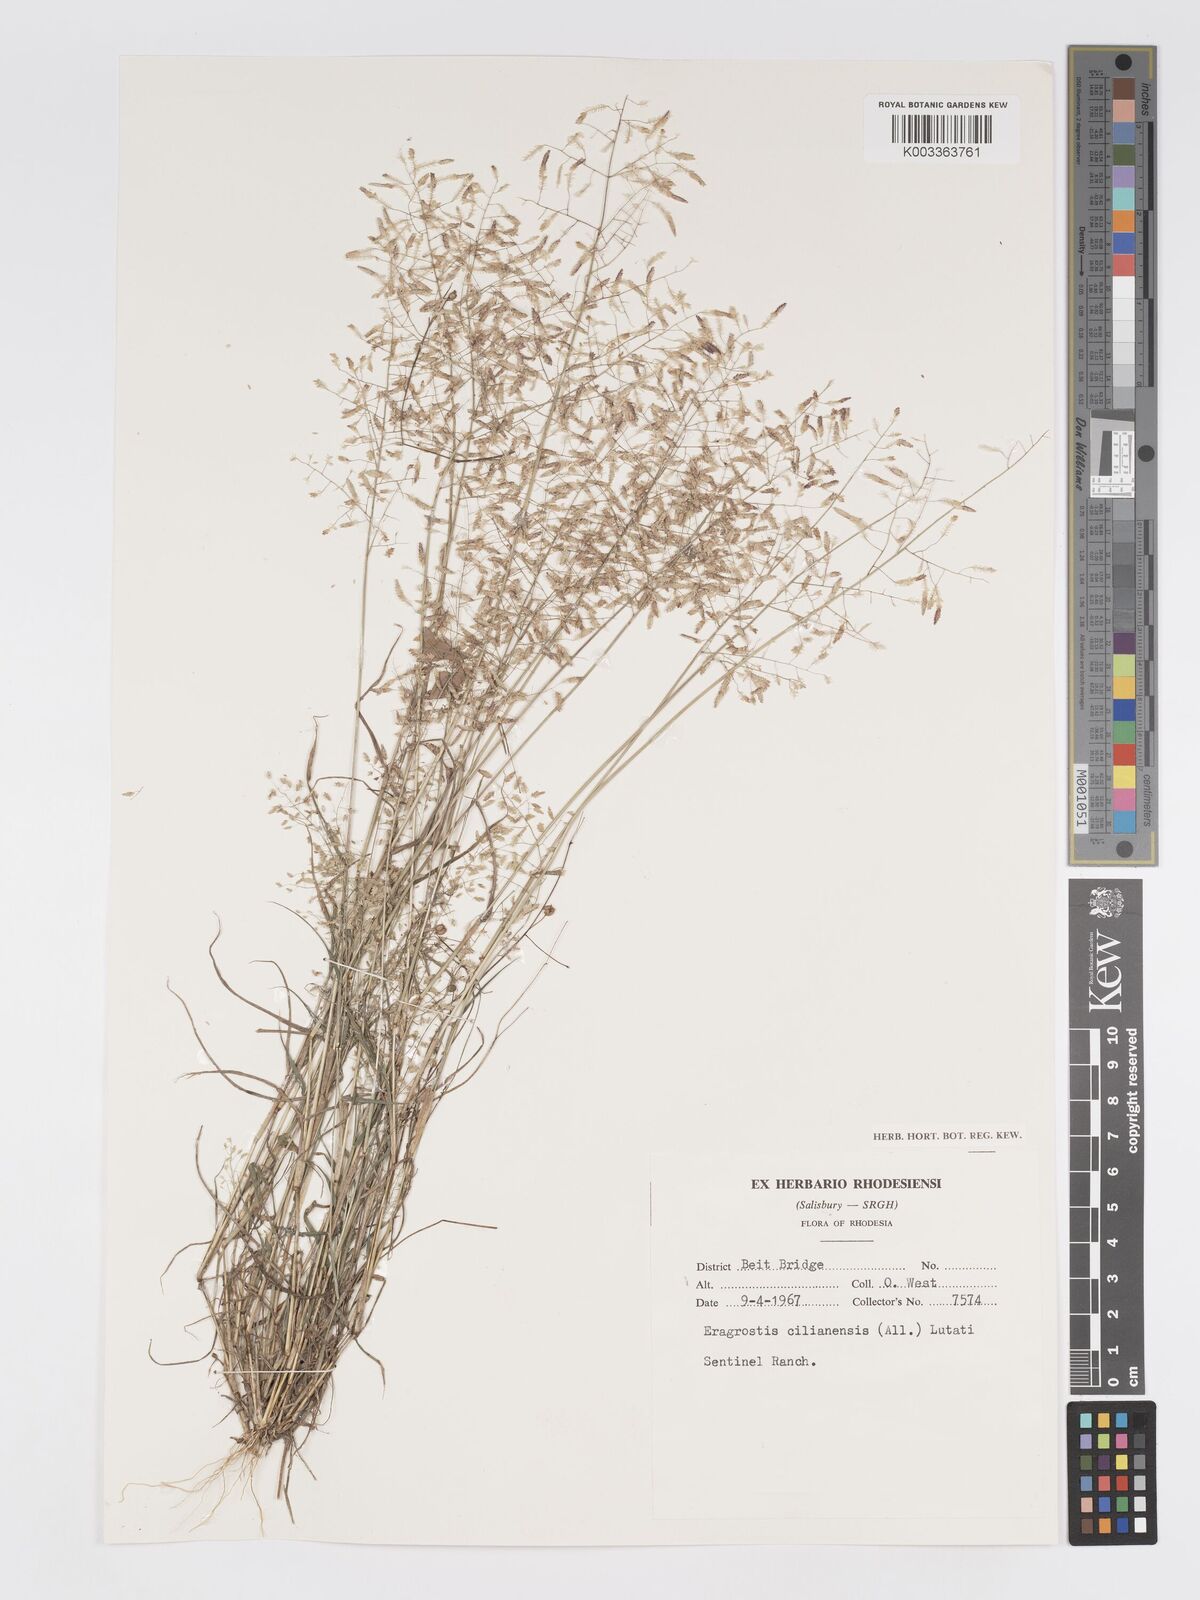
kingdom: Plantae
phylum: Tracheophyta
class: Liliopsida
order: Poales
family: Poaceae
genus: Eragrostis
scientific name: Eragrostis cilianensis
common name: Stinkgrass
